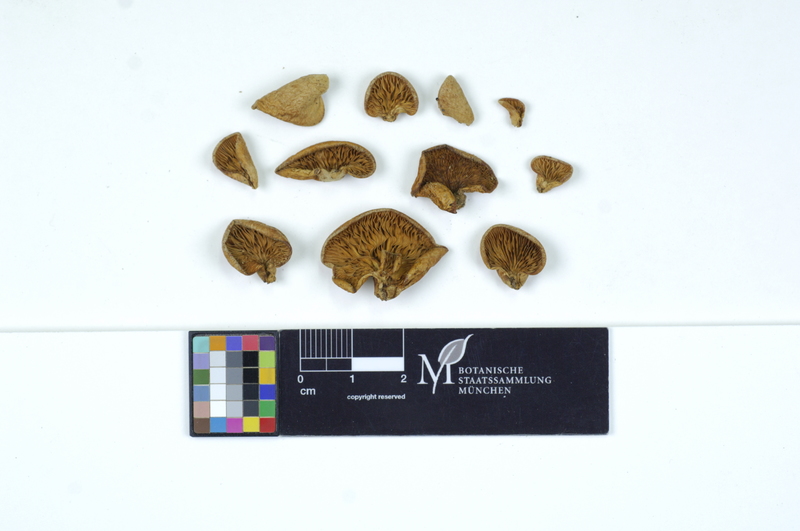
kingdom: Plantae
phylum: Tracheophyta
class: Magnoliopsida
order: Rosales
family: Rosaceae
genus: Malus
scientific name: Malus
